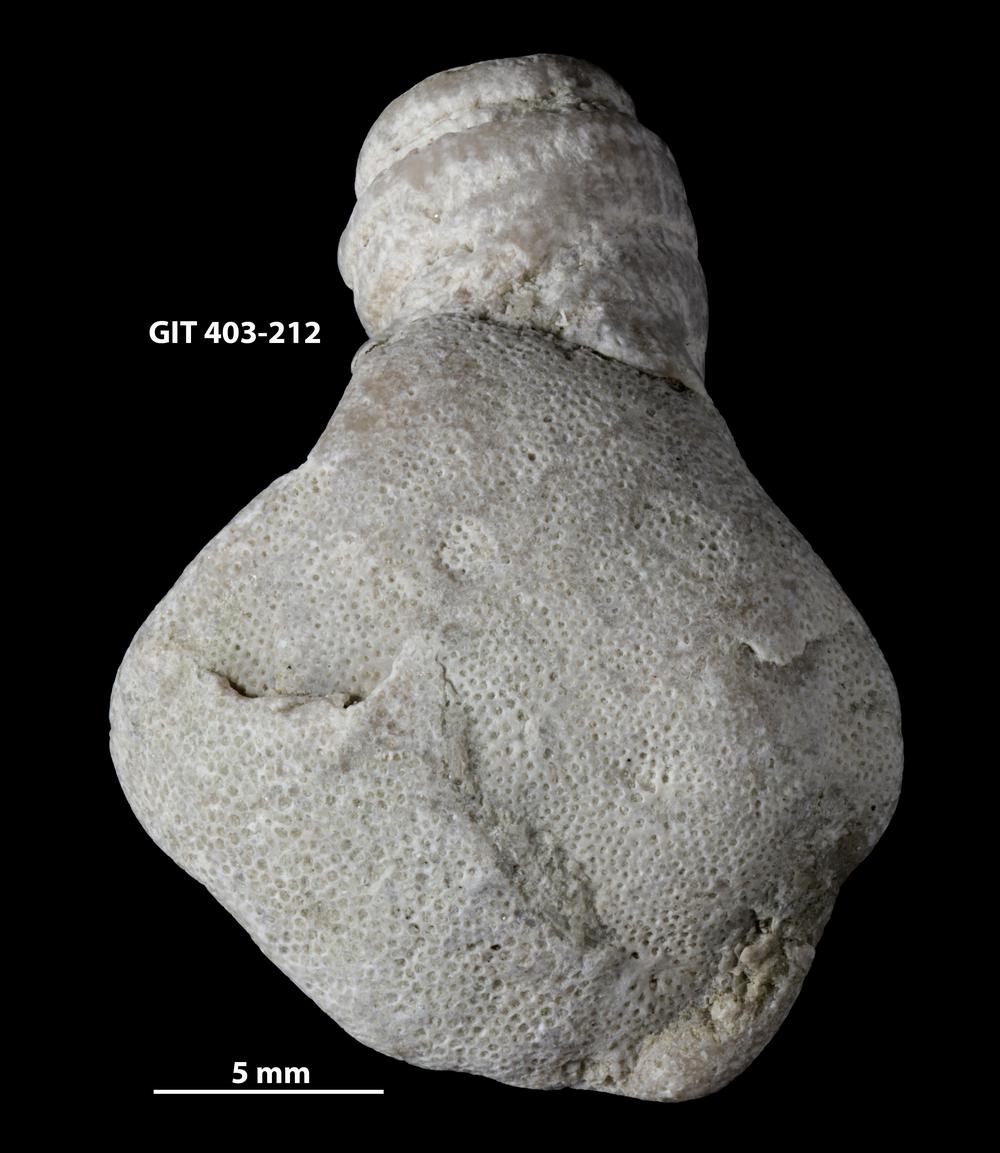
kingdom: Animalia
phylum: Bryozoa
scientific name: Bryozoa
